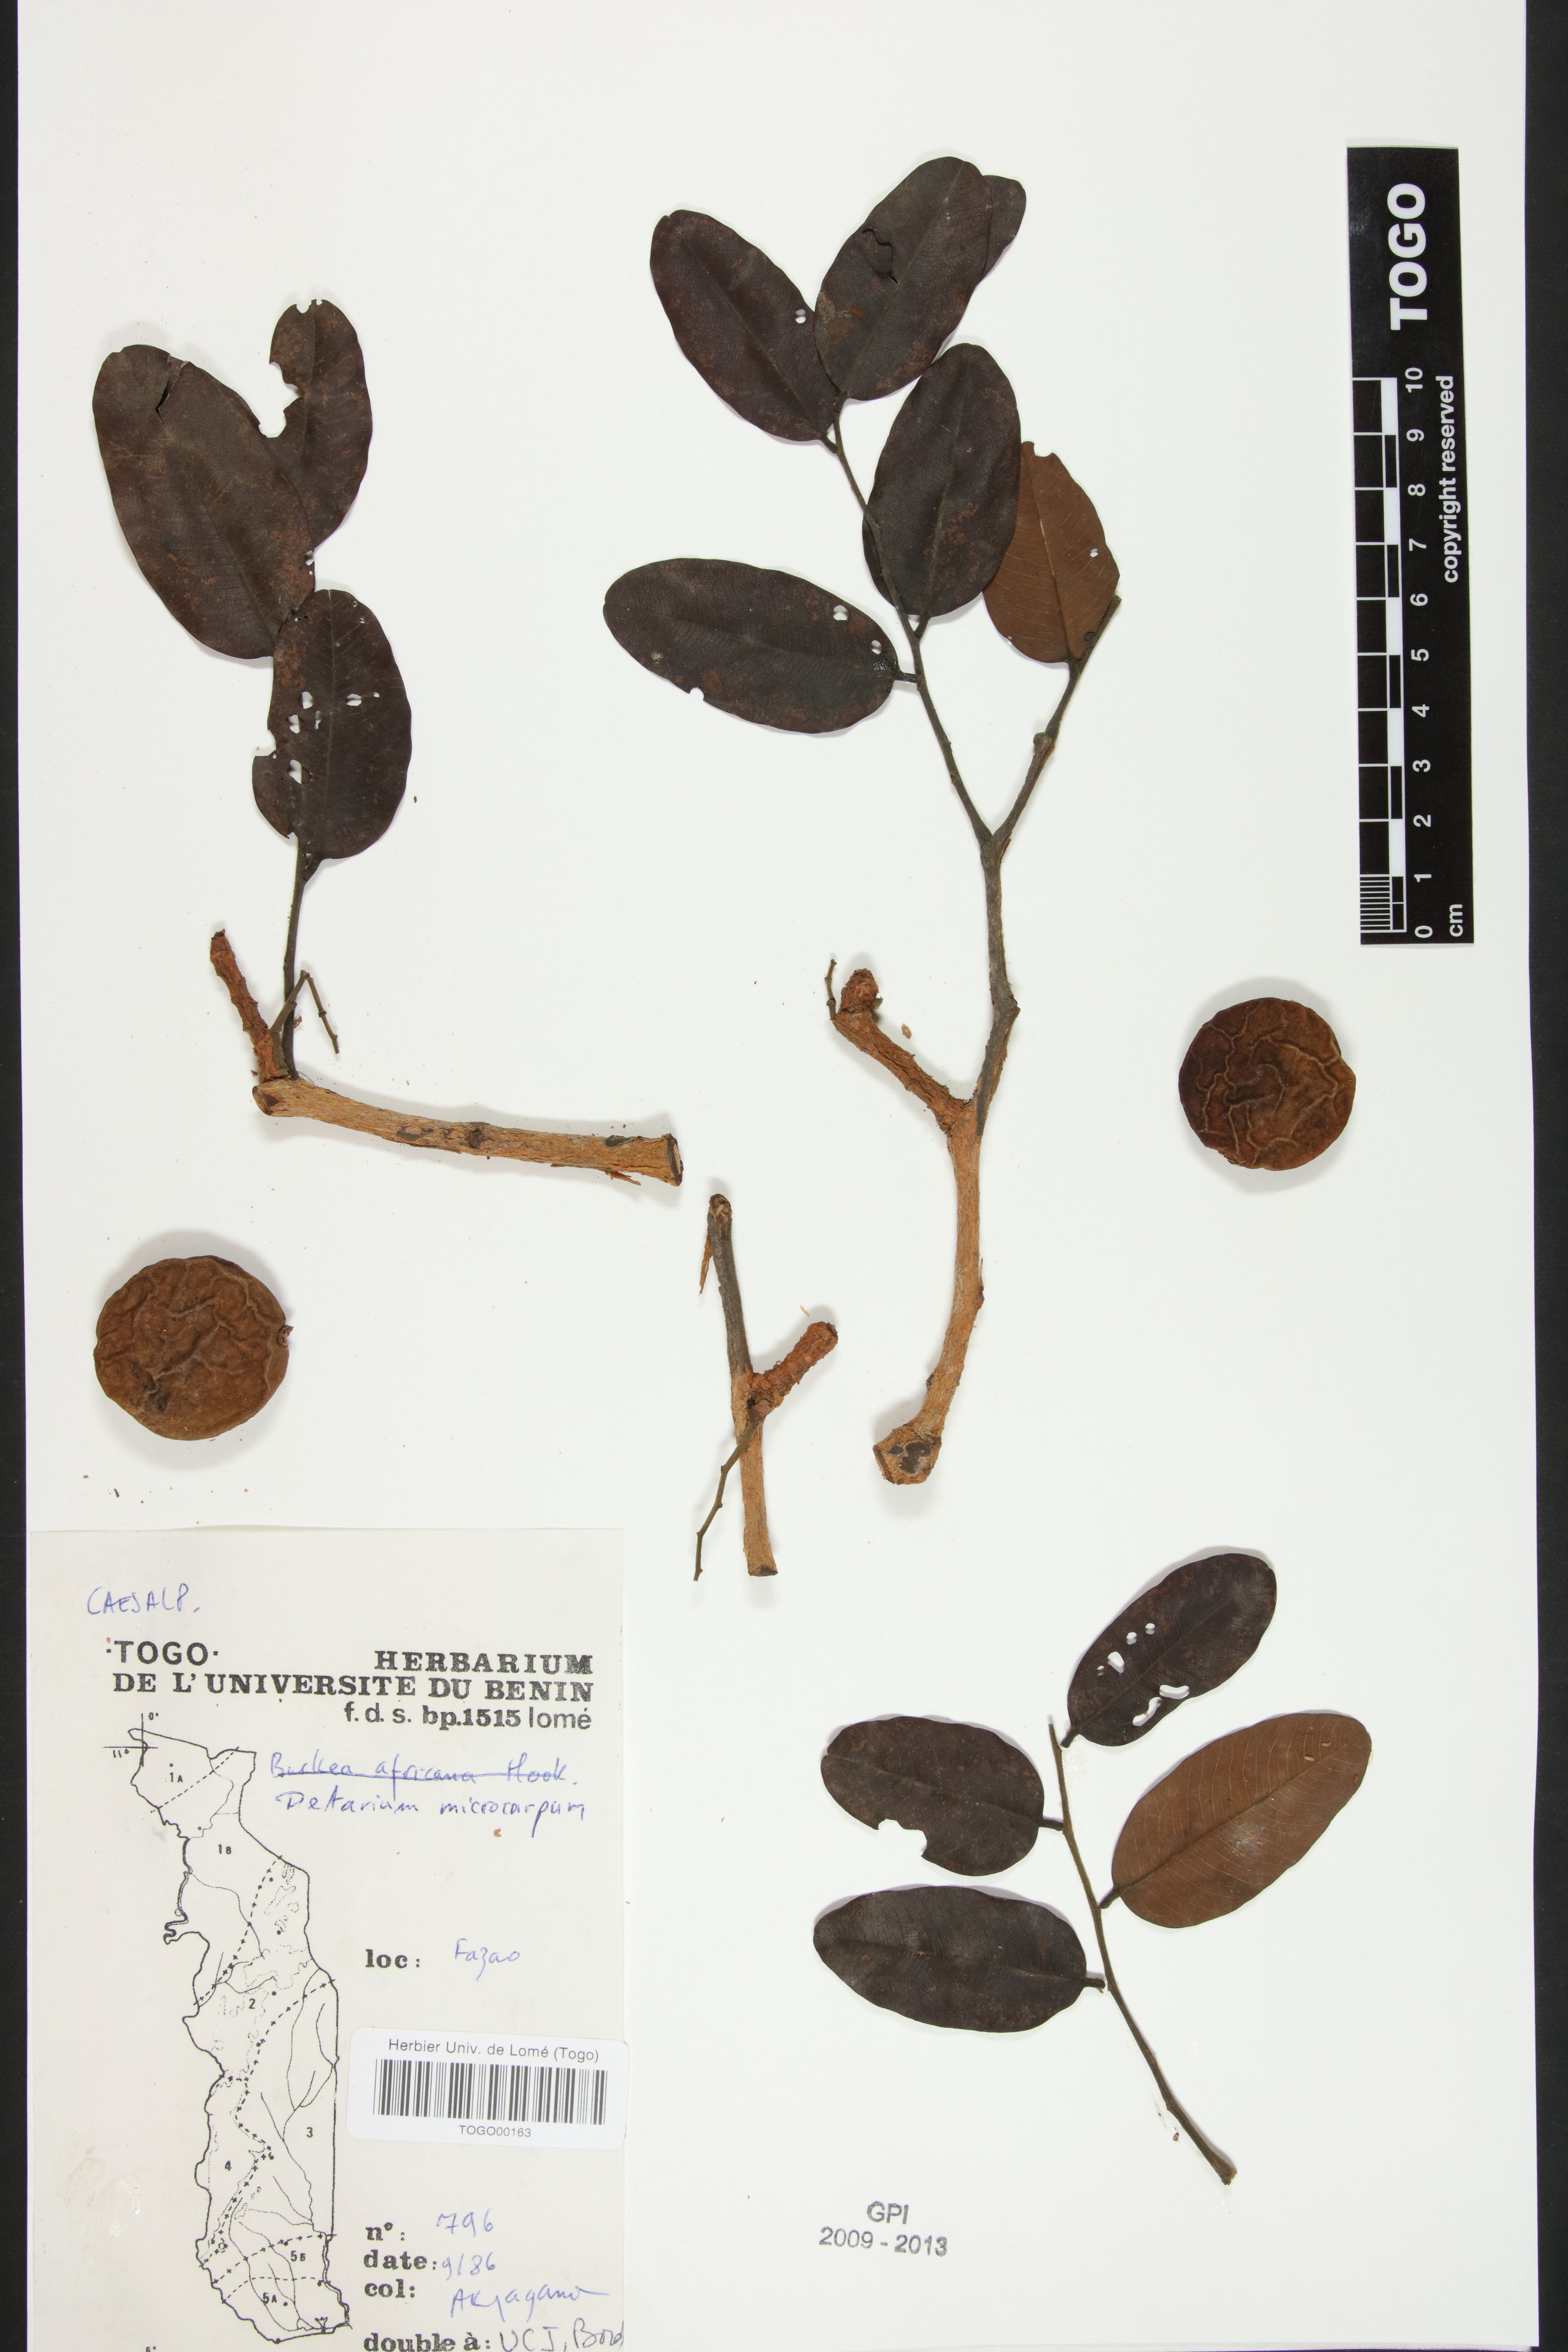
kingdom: Plantae
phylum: Tracheophyta
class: Magnoliopsida
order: Fabales
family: Fabaceae
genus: Detarium
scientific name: Detarium microcarpum
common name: Sweet dattock
